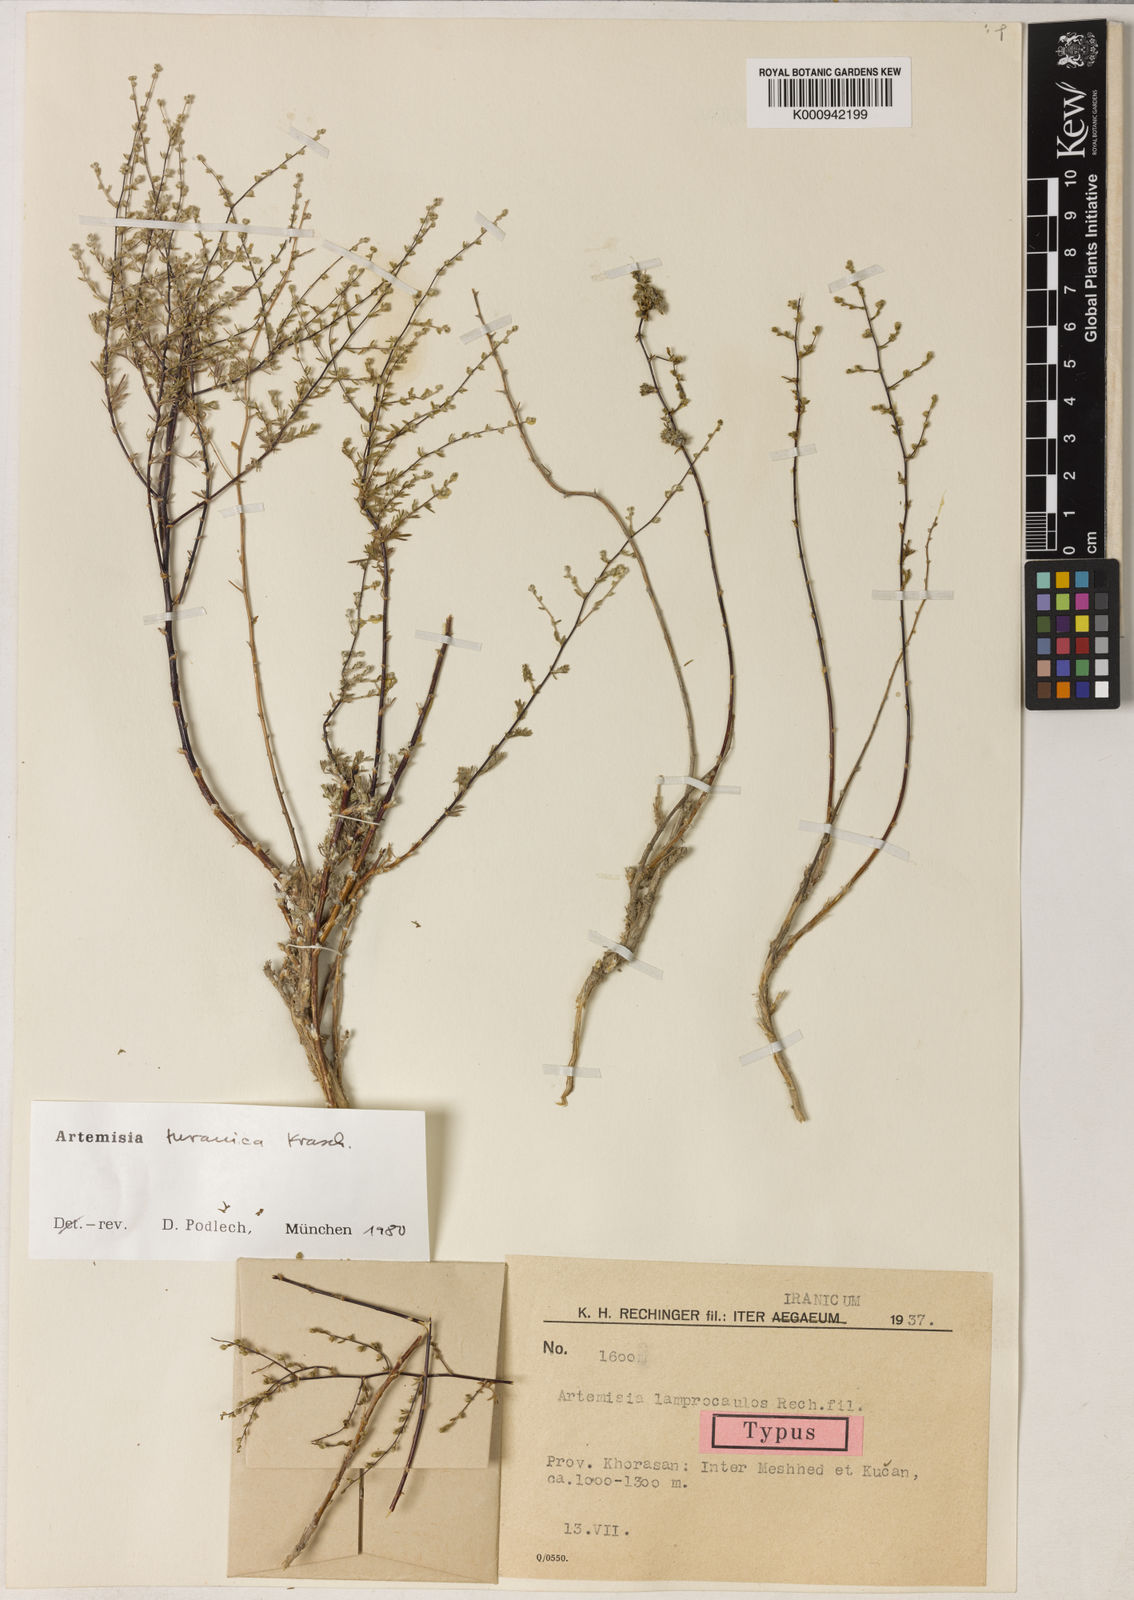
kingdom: Plantae
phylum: Tracheophyta
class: Magnoliopsida
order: Asterales
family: Asteraceae
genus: Artemisia
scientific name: Artemisia turanica
